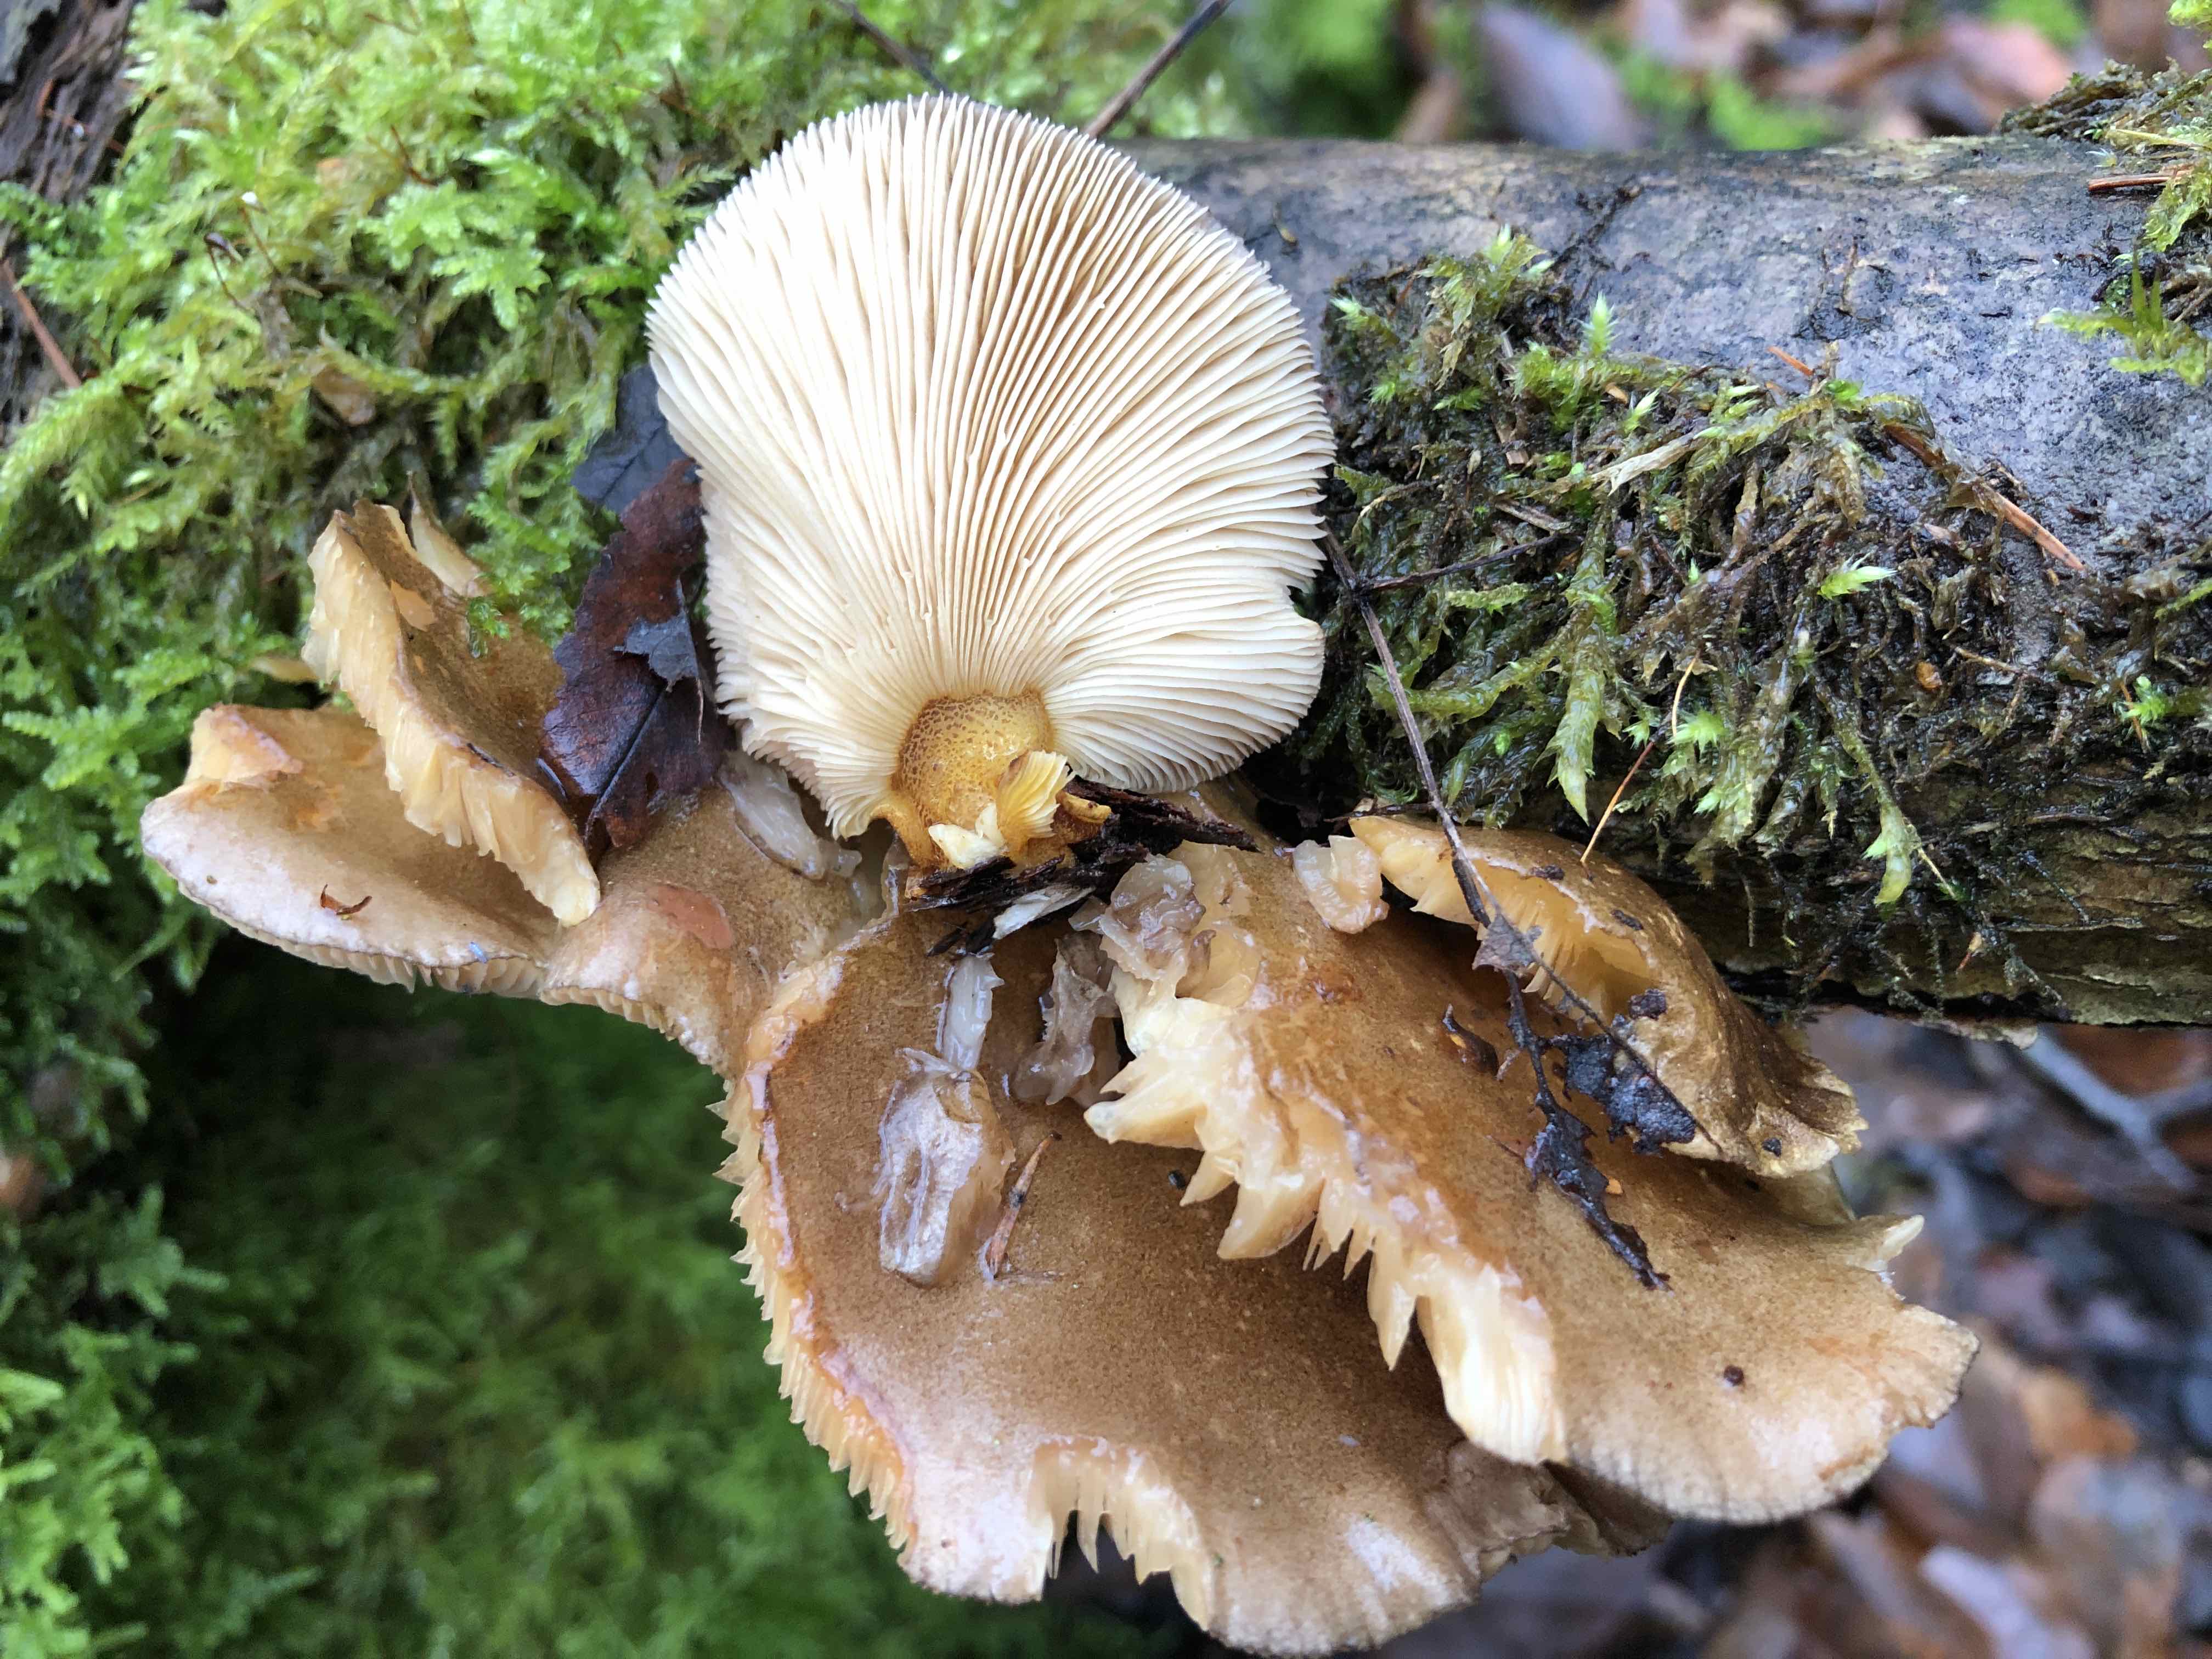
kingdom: Fungi
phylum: Basidiomycota
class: Agaricomycetes
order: Agaricales
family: Sarcomyxaceae
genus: Sarcomyxa
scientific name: Sarcomyxa serotina
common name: gummihat
